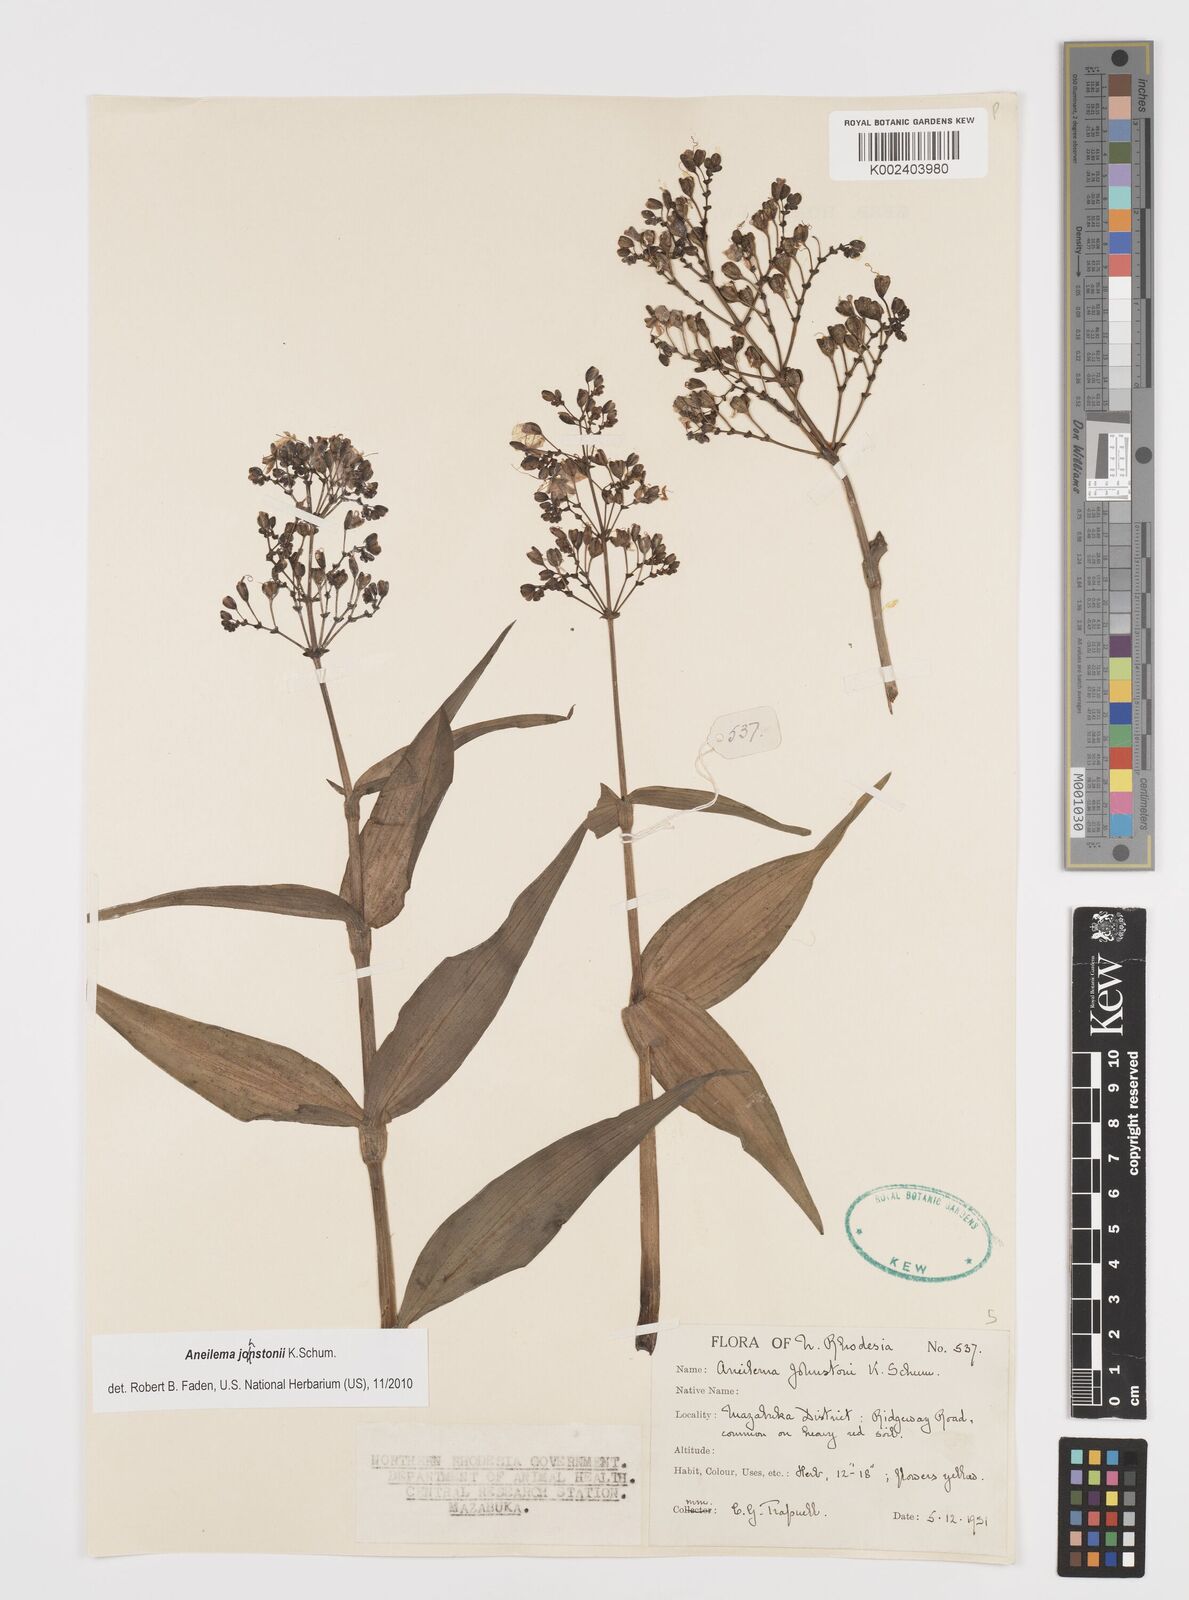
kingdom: Plantae
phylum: Tracheophyta
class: Liliopsida
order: Commelinales
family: Commelinaceae
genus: Aneilema
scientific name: Aneilema johnstonii
